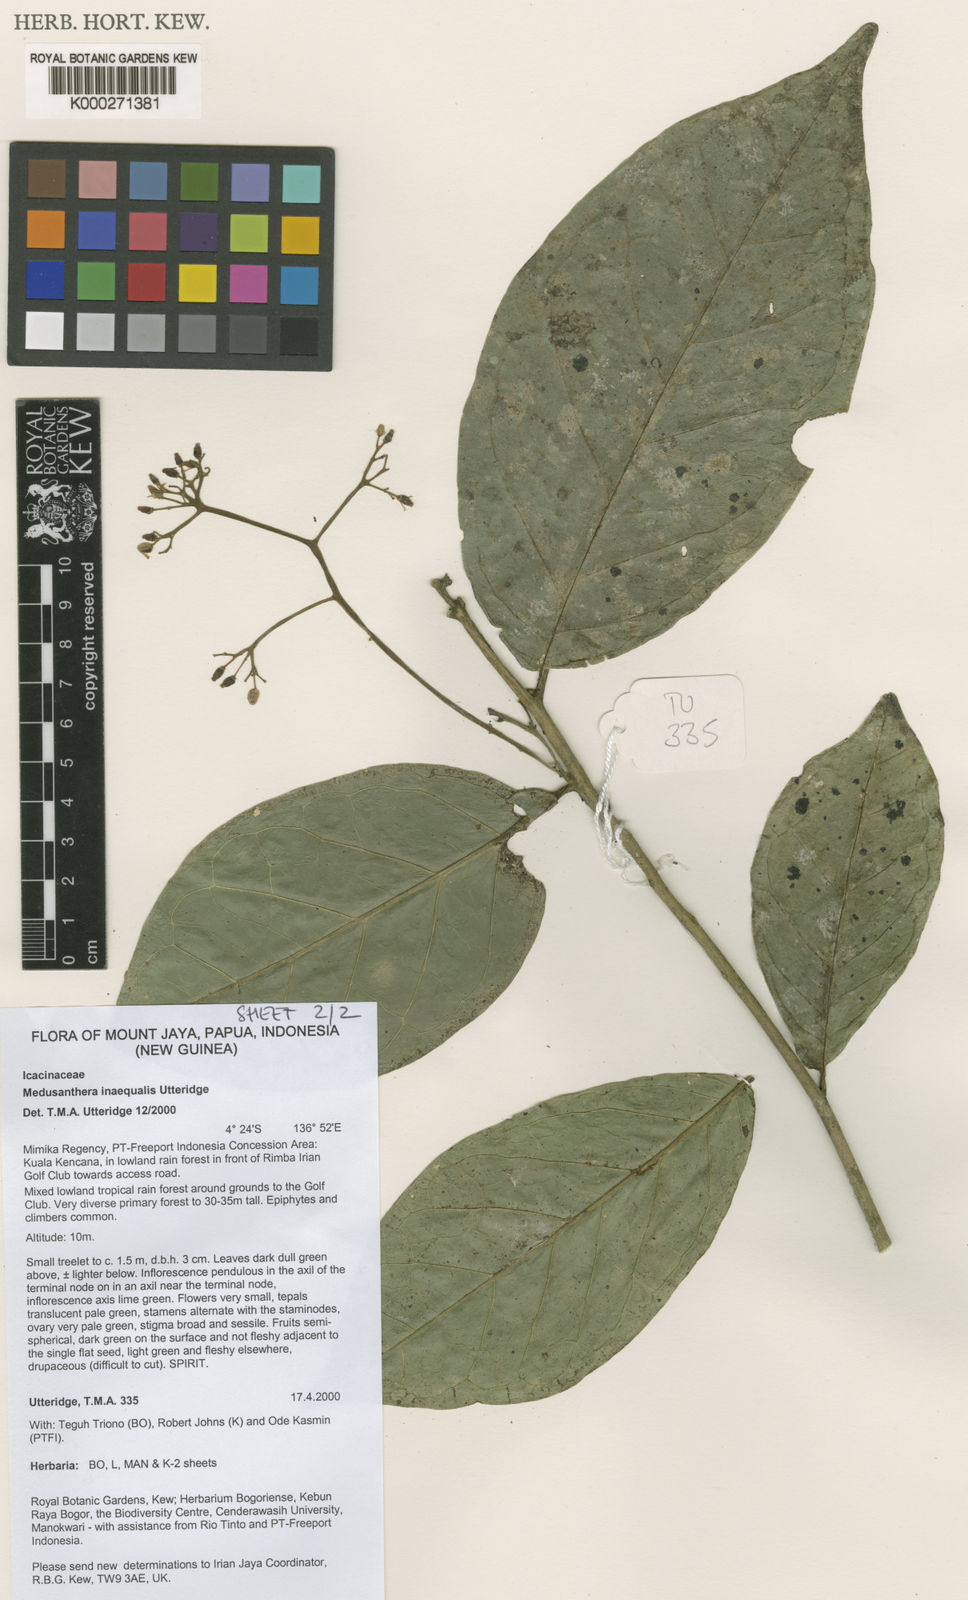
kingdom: Plantae
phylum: Tracheophyta
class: Magnoliopsida
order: Cardiopteridales
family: Stemonuraceae
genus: Medusanthera
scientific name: Medusanthera inaequalis
